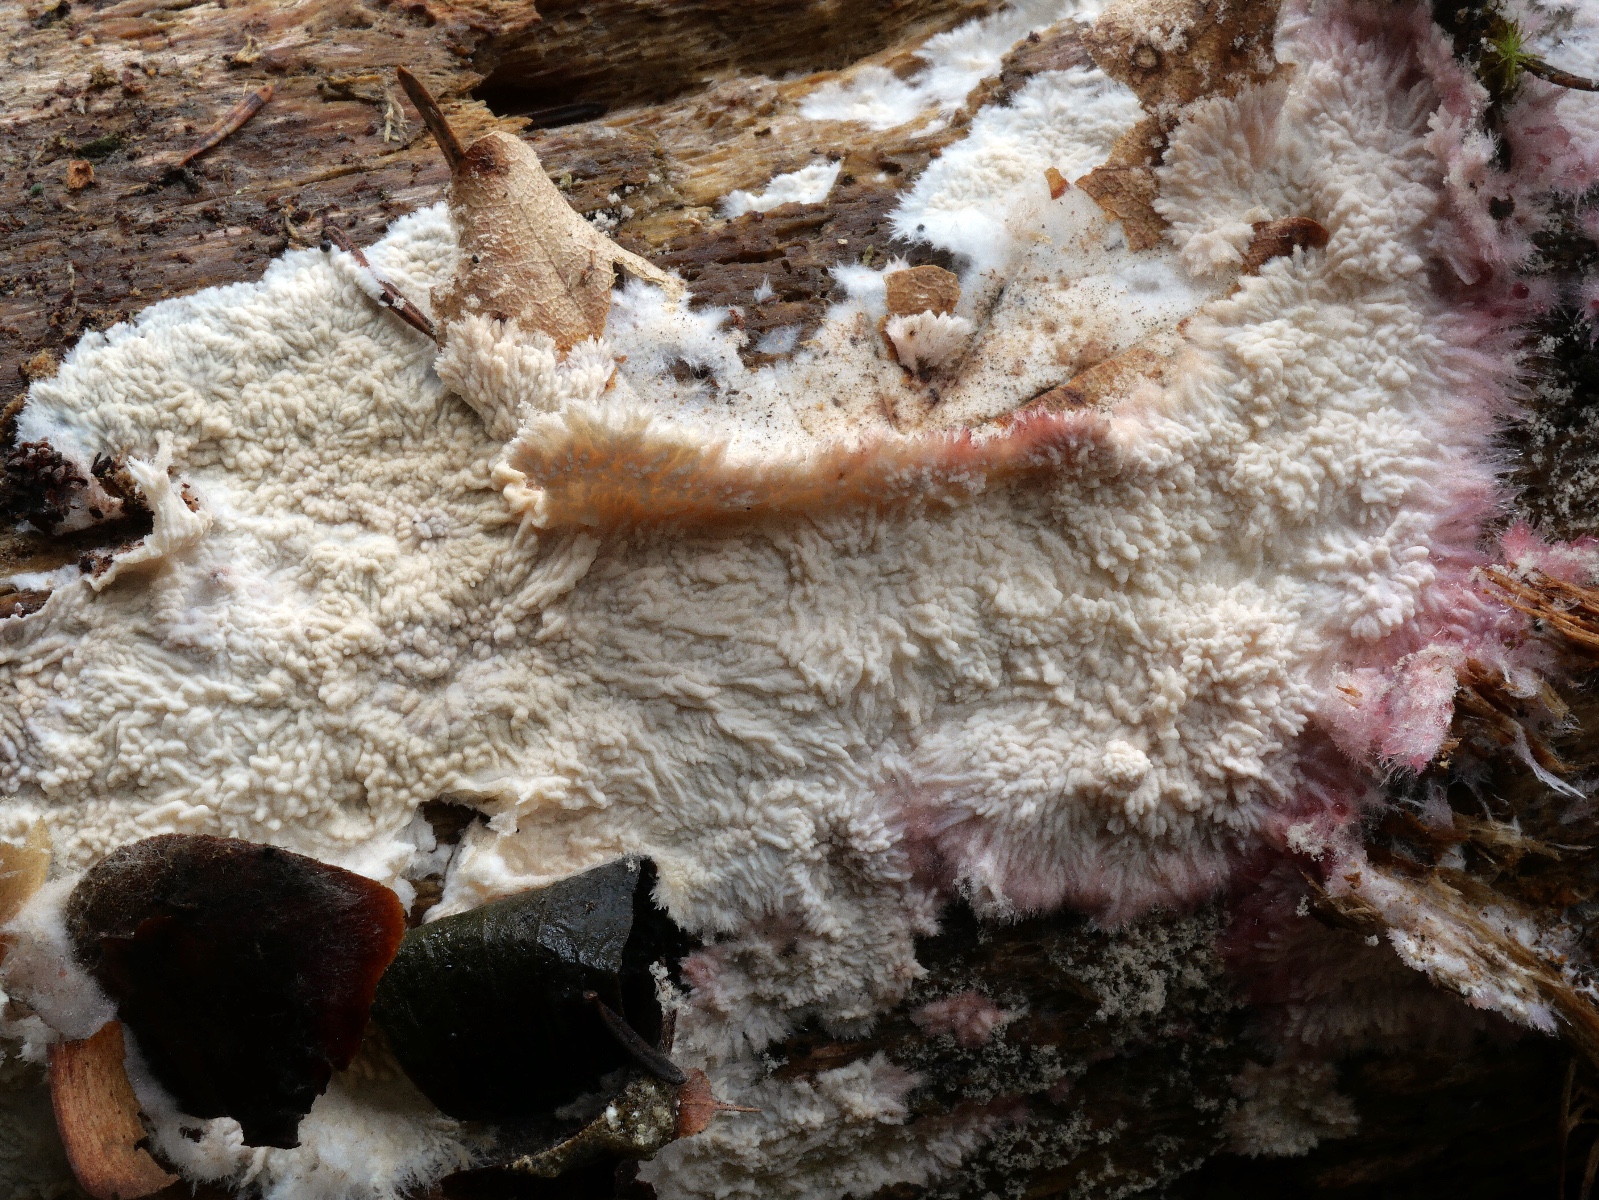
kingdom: Fungi
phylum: Basidiomycota
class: Agaricomycetes
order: Polyporales
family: Meruliaceae
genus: Hermanssonia
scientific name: Hermanssonia centrifuga
